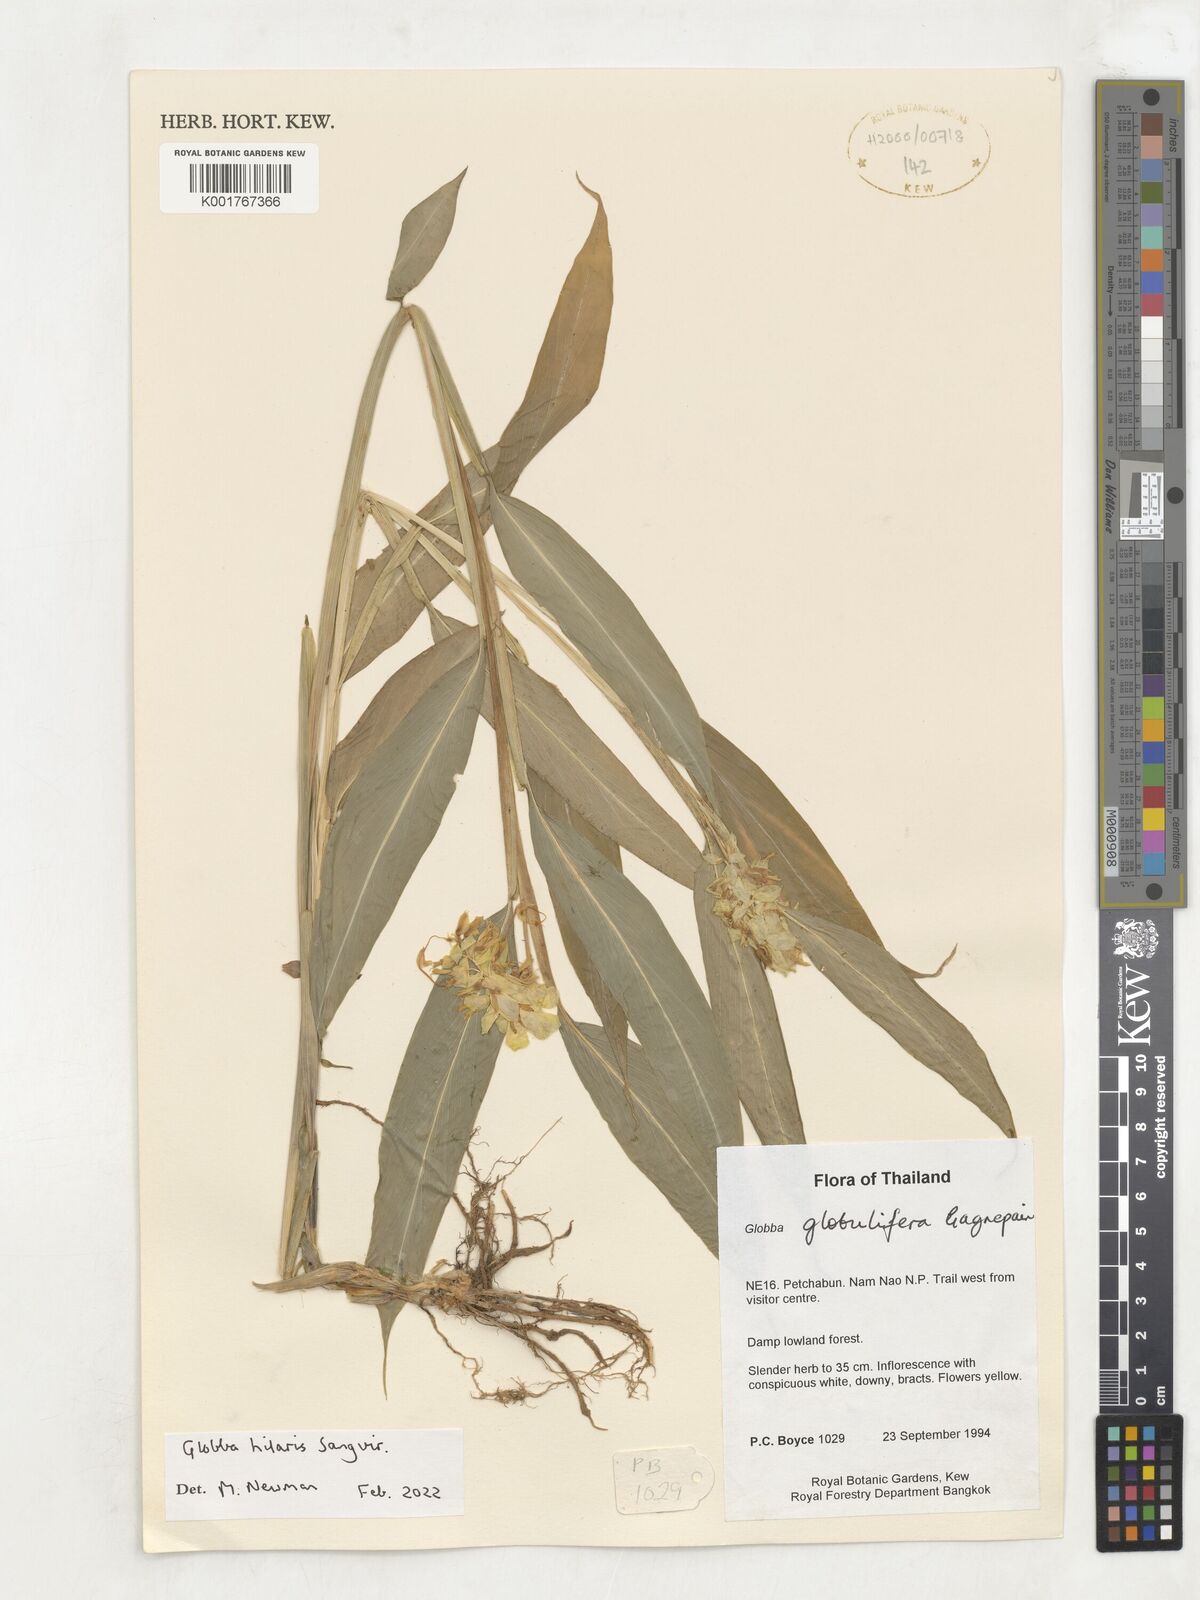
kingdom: Plantae
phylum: Tracheophyta
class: Liliopsida
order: Zingiberales
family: Zingiberaceae
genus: Globba
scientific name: Globba
